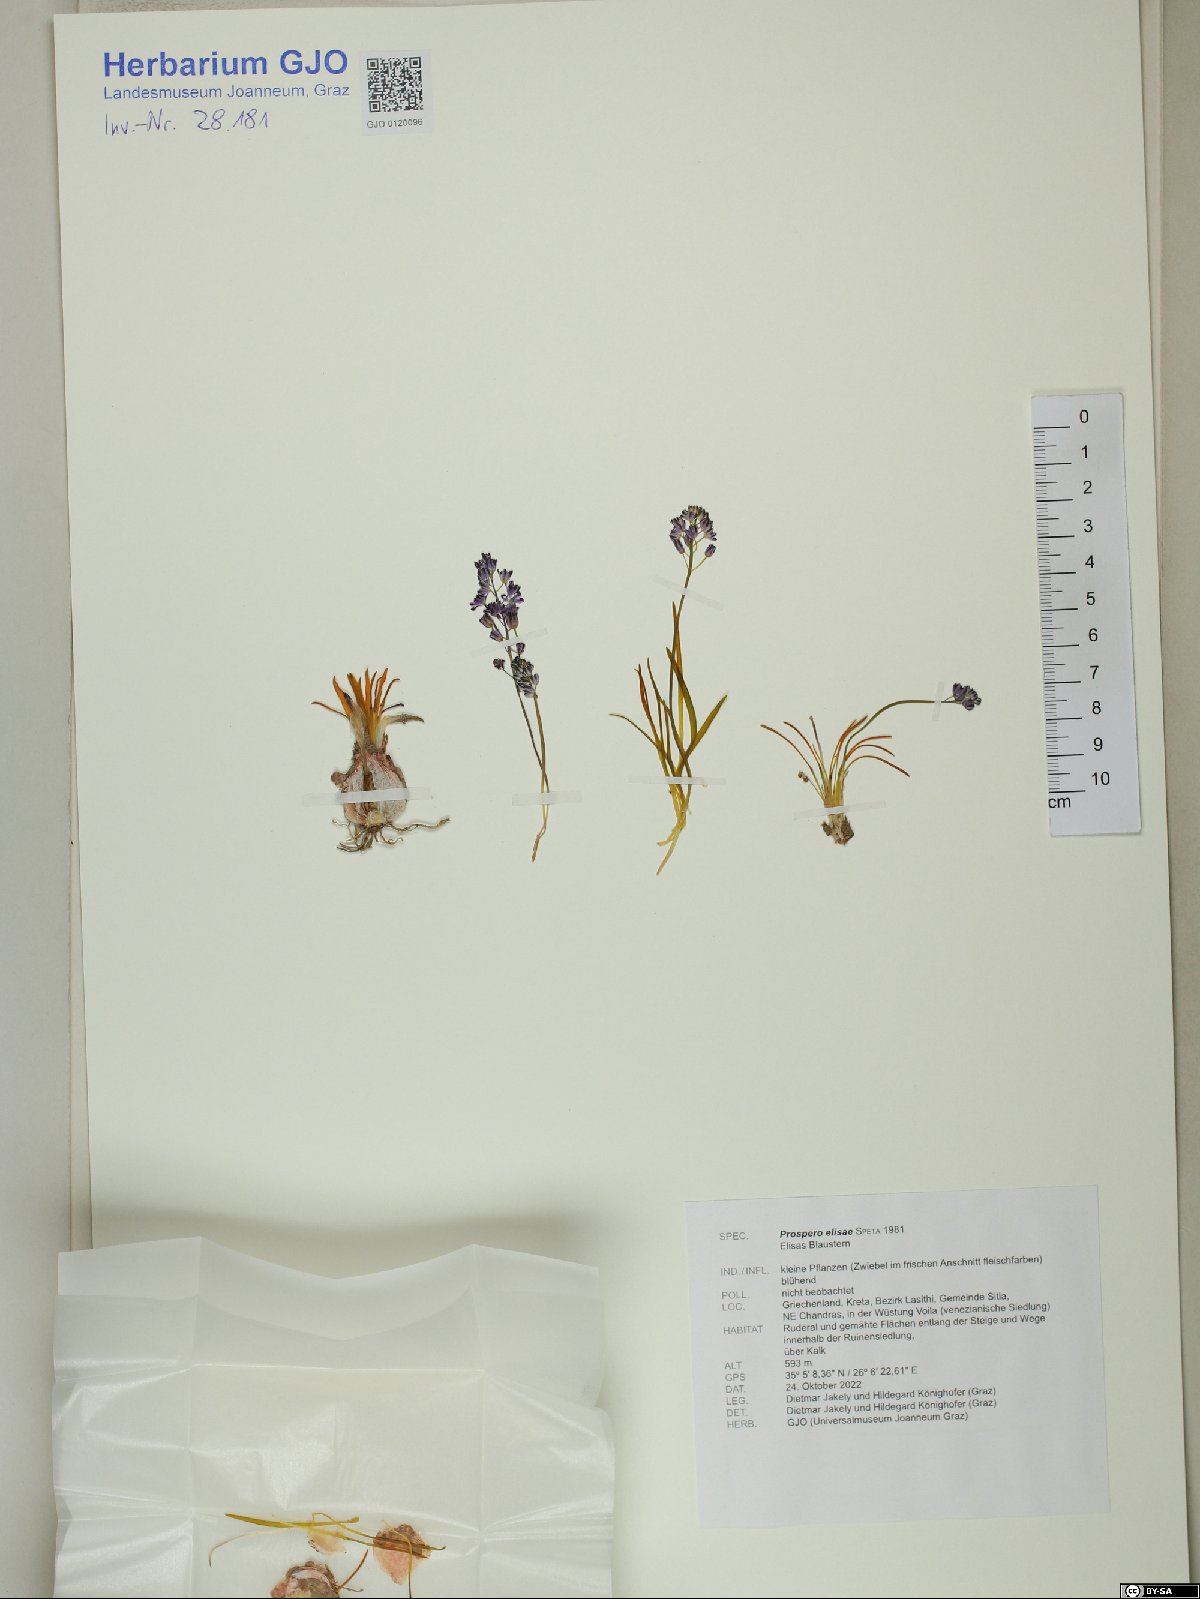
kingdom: Plantae
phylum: Tracheophyta
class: Liliopsida
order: Asparagales
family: Asparagaceae
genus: Prospero
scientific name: Prospero elisae
